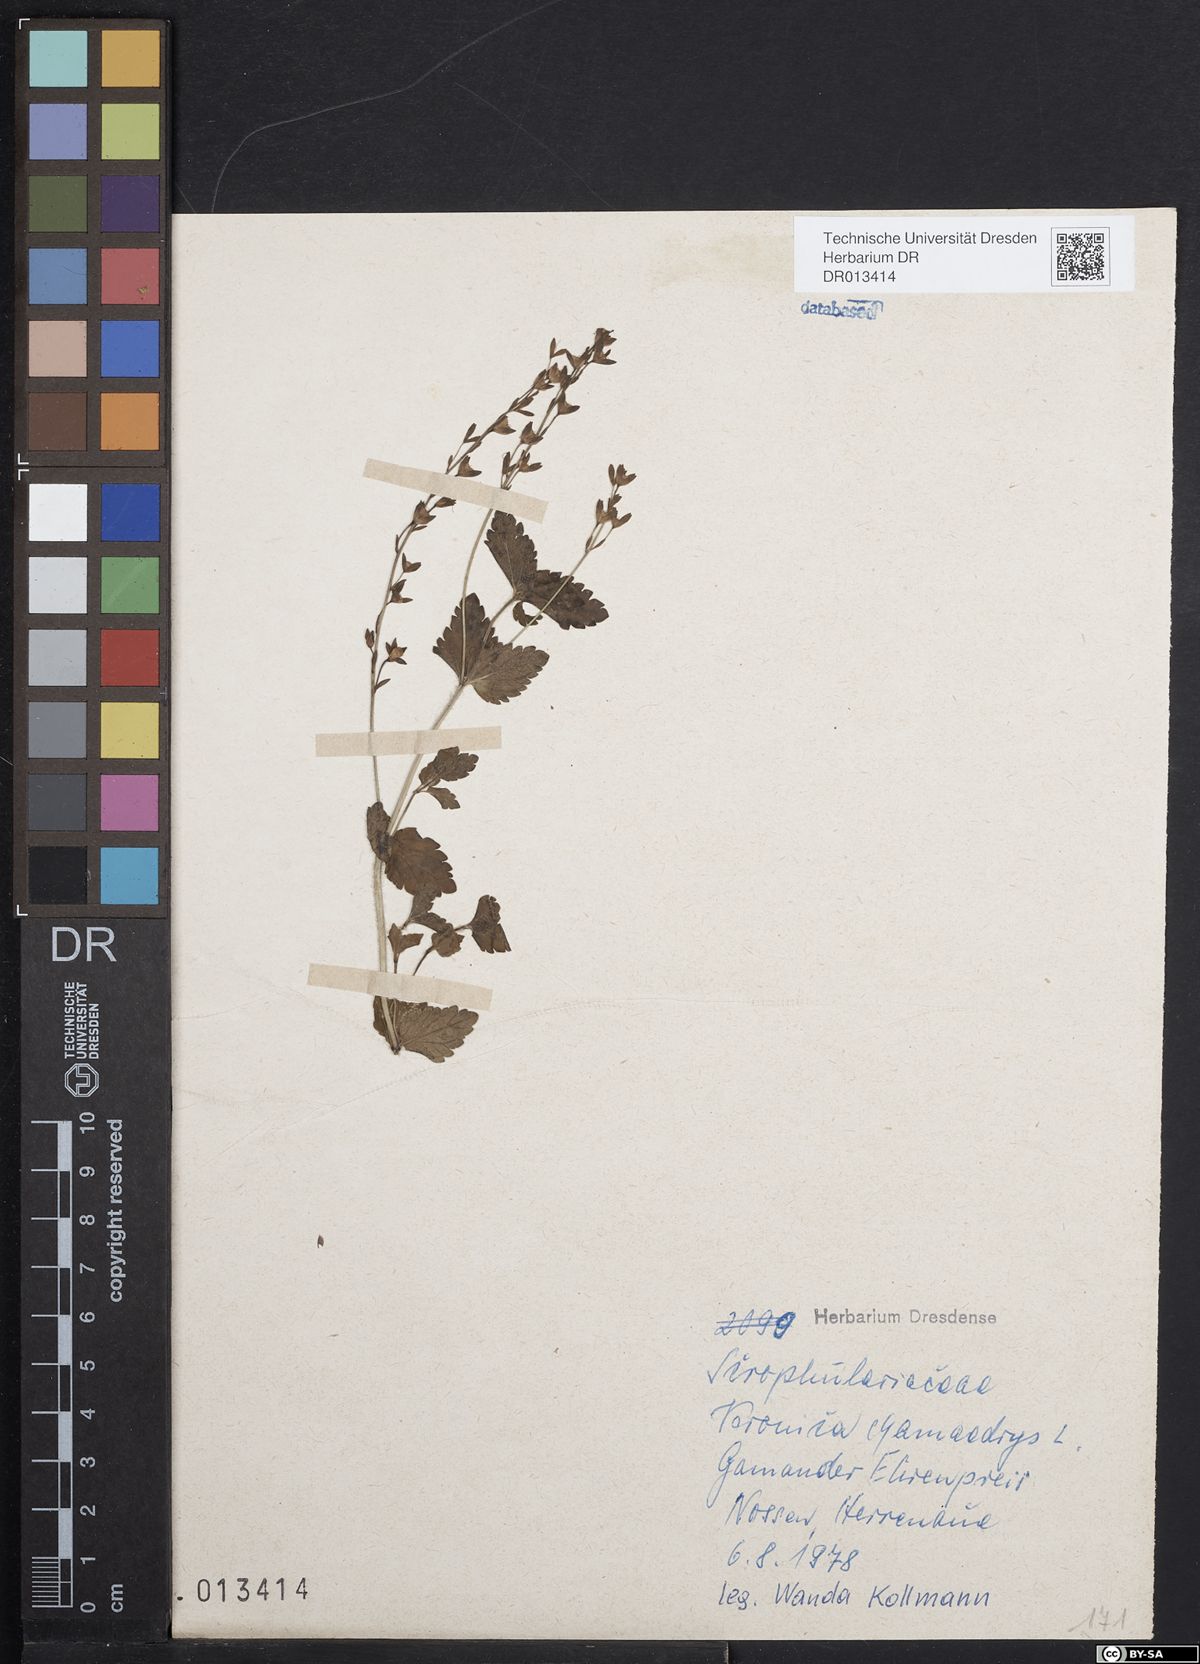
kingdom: Plantae
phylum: Tracheophyta
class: Magnoliopsida
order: Lamiales
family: Plantaginaceae
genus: Veronica
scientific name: Veronica chamaedrys
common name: Germander speedwell
